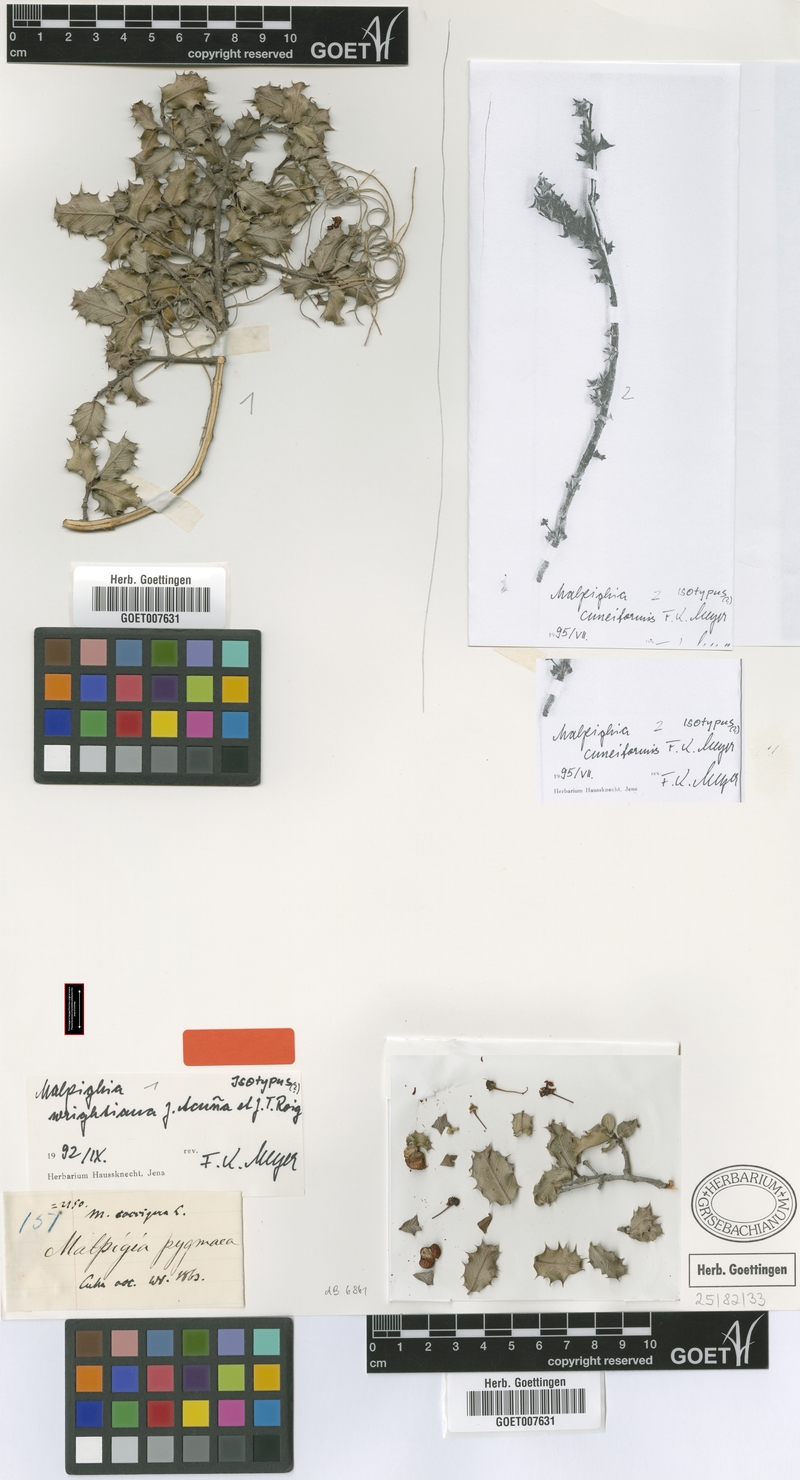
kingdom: Plantae
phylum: Tracheophyta
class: Magnoliopsida
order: Malpighiales
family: Malpighiaceae
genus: Malpighia
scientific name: Malpighia wrightiana
